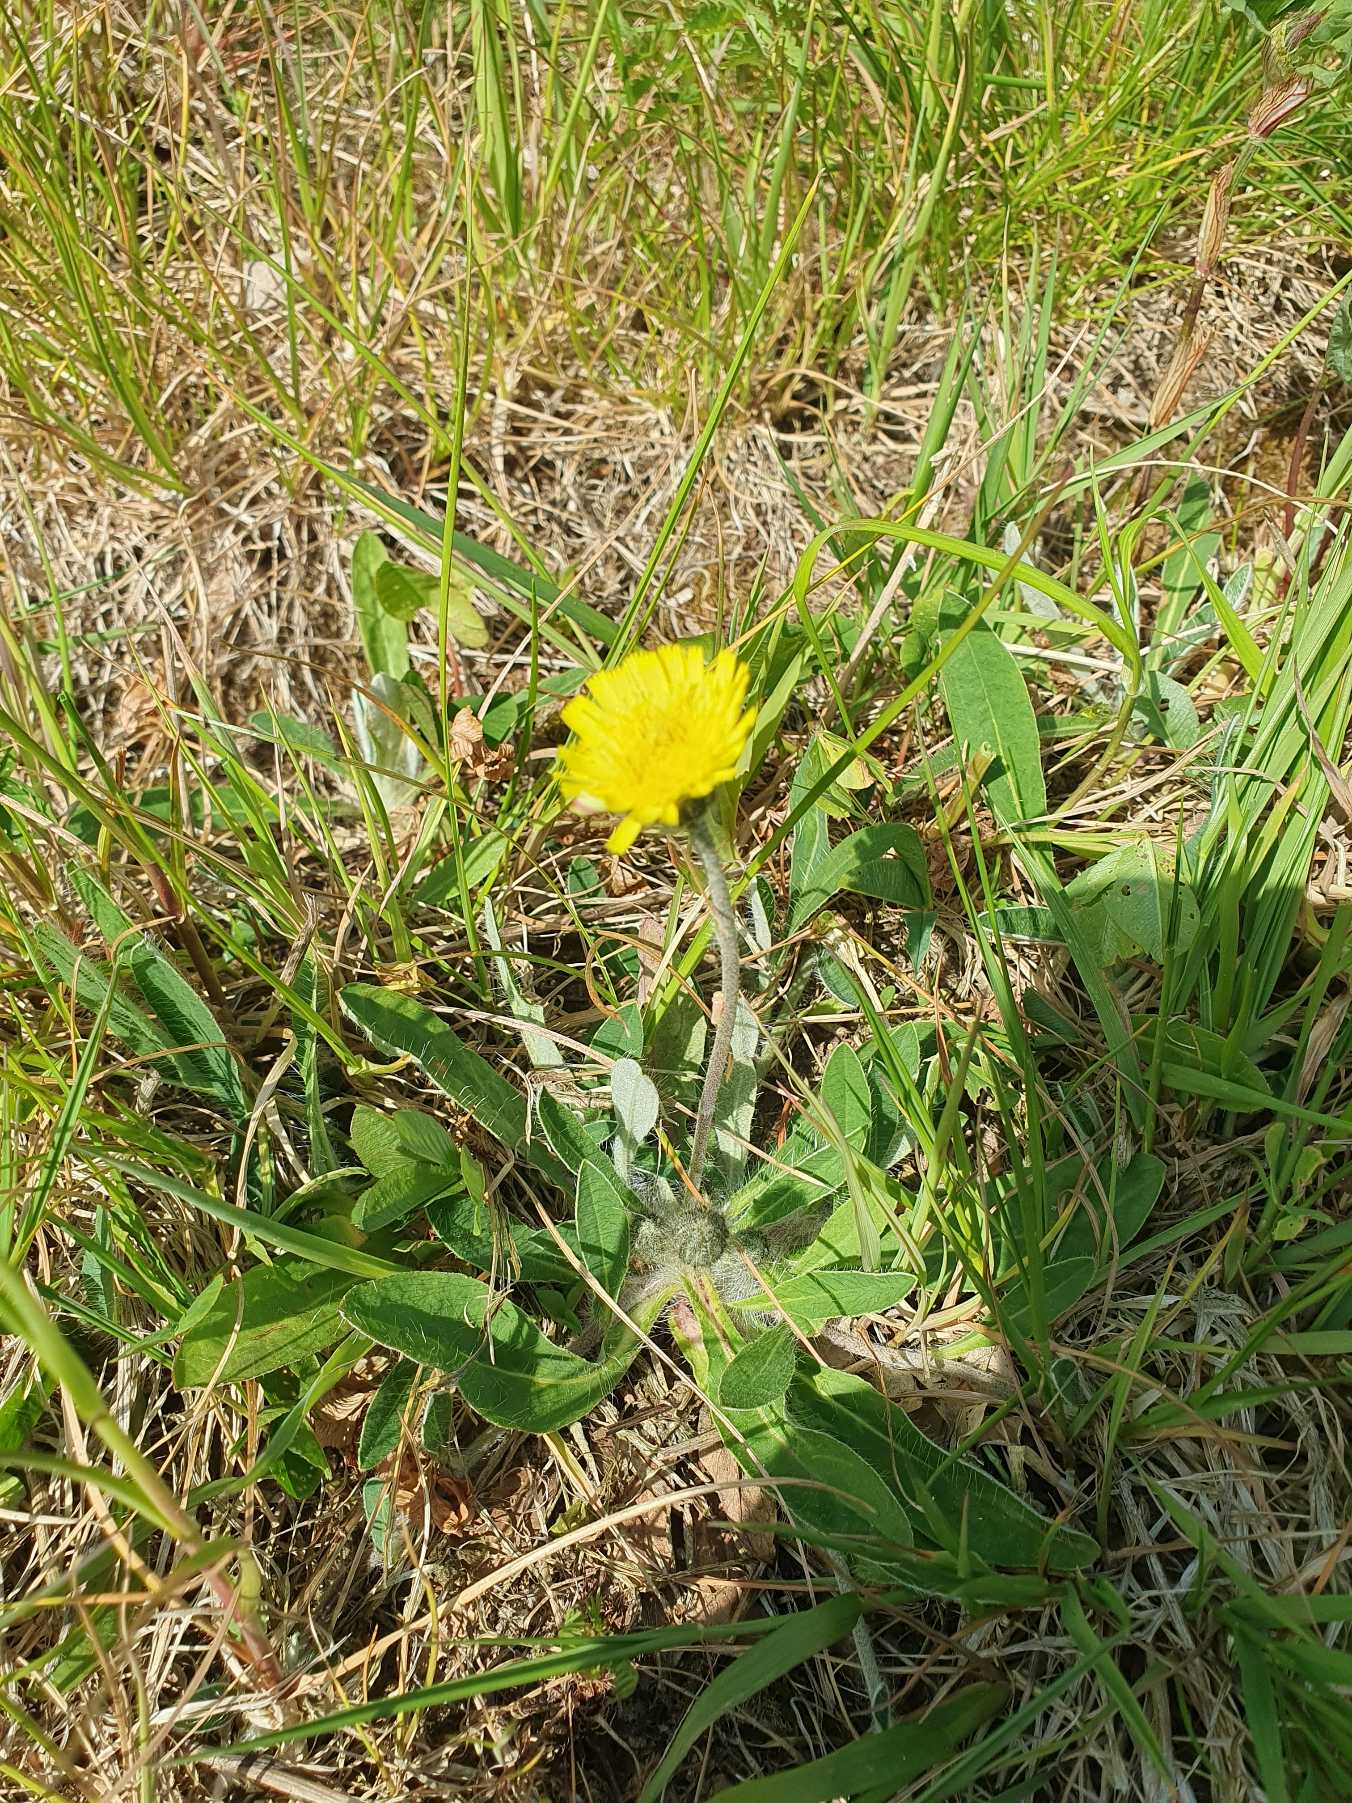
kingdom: Plantae
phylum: Tracheophyta
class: Magnoliopsida
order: Asterales
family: Asteraceae
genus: Pilosella
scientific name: Pilosella officinarum
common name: Håret høgeurt
